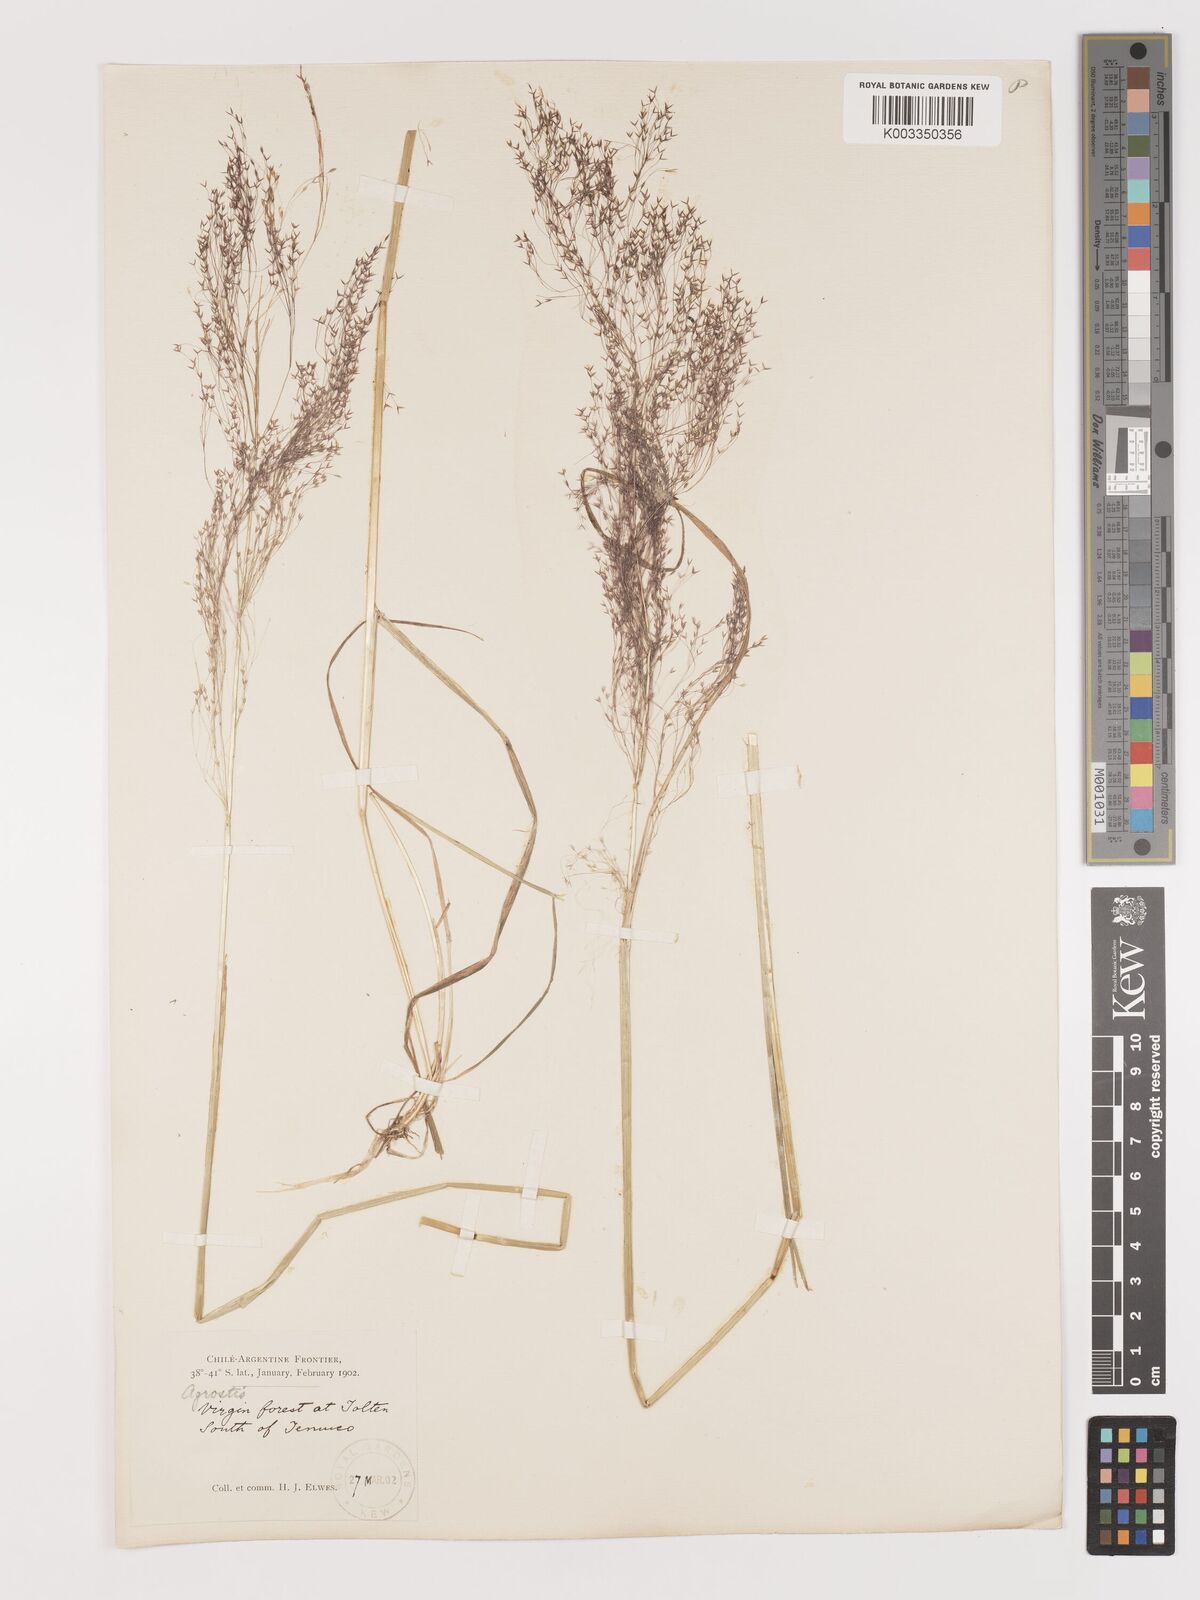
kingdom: Plantae
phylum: Tracheophyta
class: Liliopsida
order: Poales
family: Poaceae
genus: Agrostis
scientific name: Agrostis
